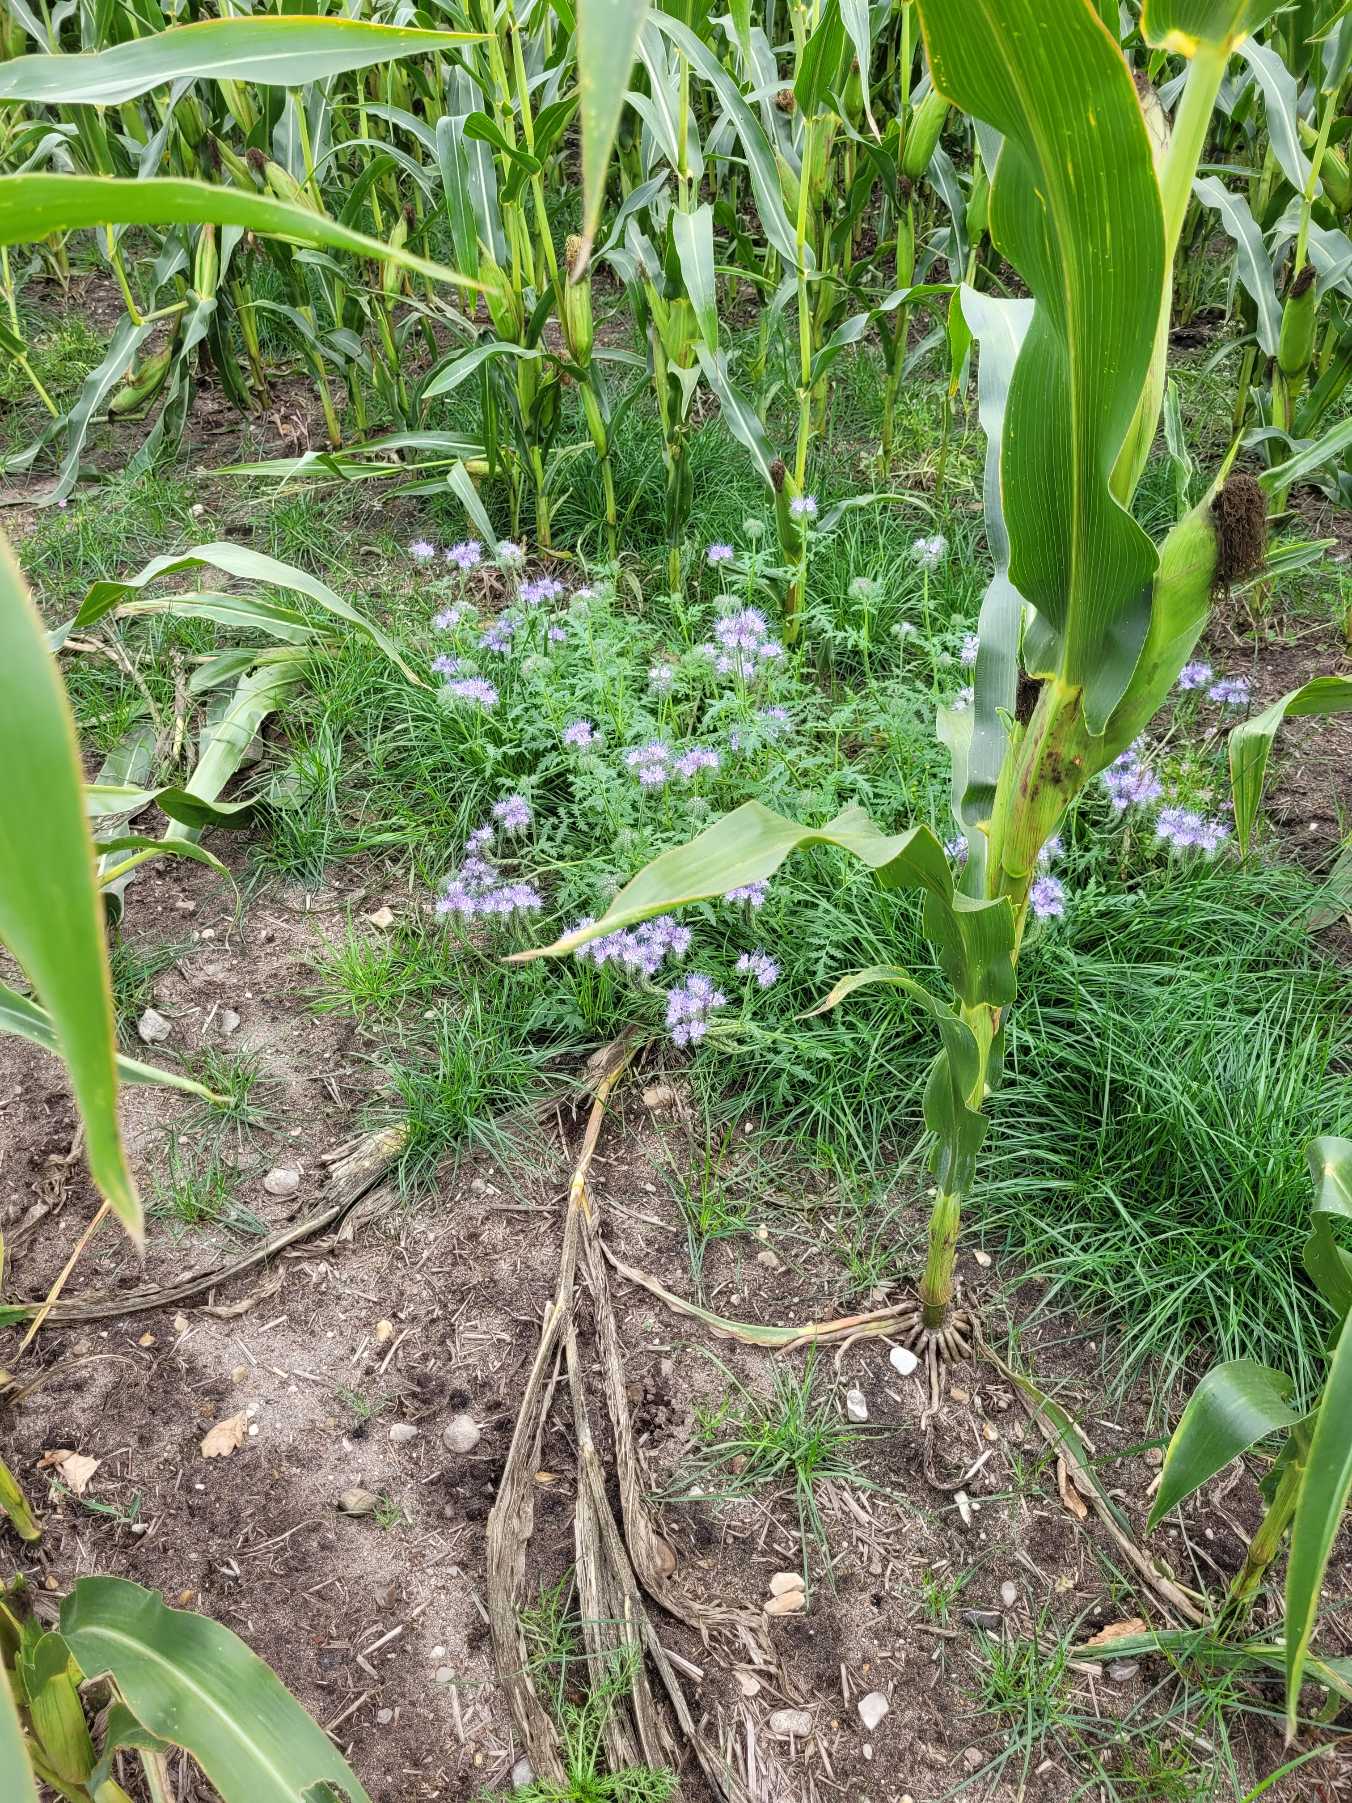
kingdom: Plantae
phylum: Tracheophyta
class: Magnoliopsida
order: Boraginales
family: Hydrophyllaceae
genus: Phacelia
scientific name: Phacelia tanacetifolia
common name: Honningurt
